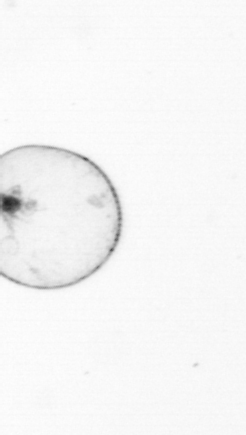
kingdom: Chromista
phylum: Myzozoa
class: Dinophyceae
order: Noctilucales
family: Noctilucaceae
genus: Noctiluca
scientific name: Noctiluca scintillans
